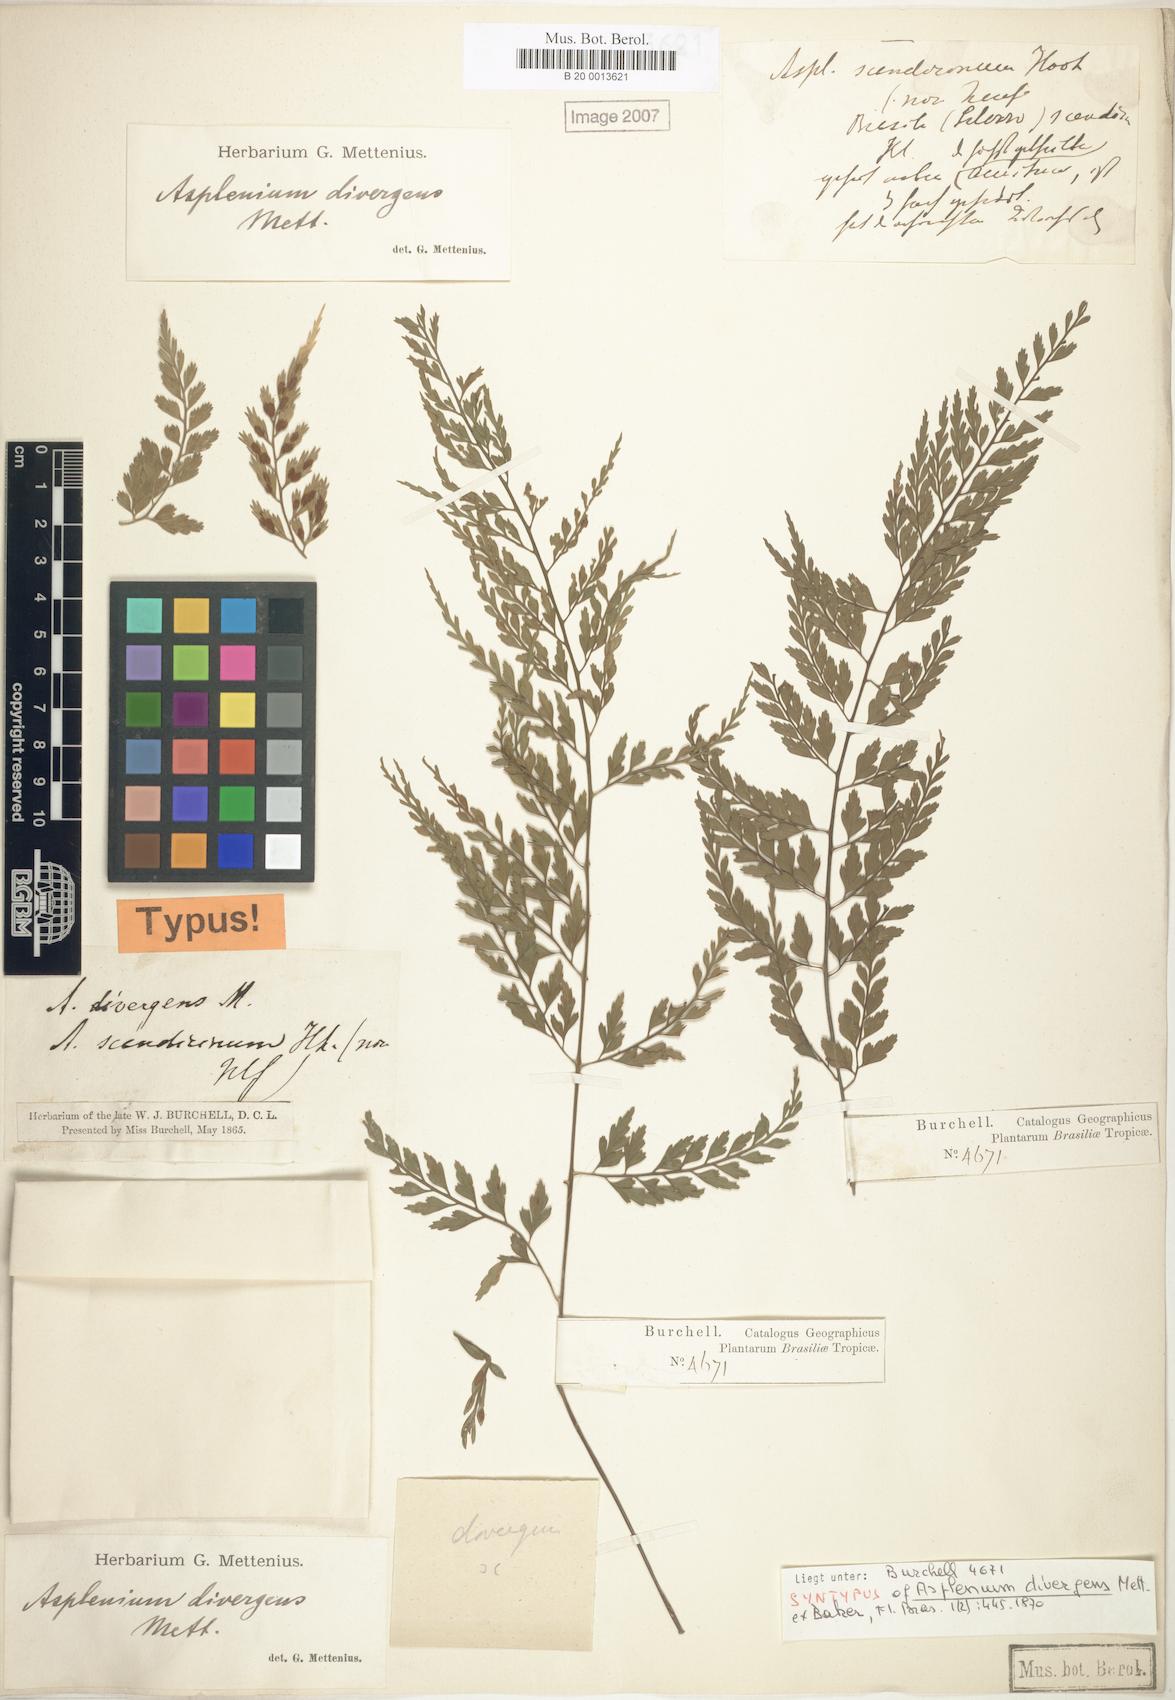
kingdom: Plantae
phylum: Tracheophyta
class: Polypodiopsida
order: Polypodiales
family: Aspleniaceae
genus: Asplenium
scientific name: Asplenium gastonis
